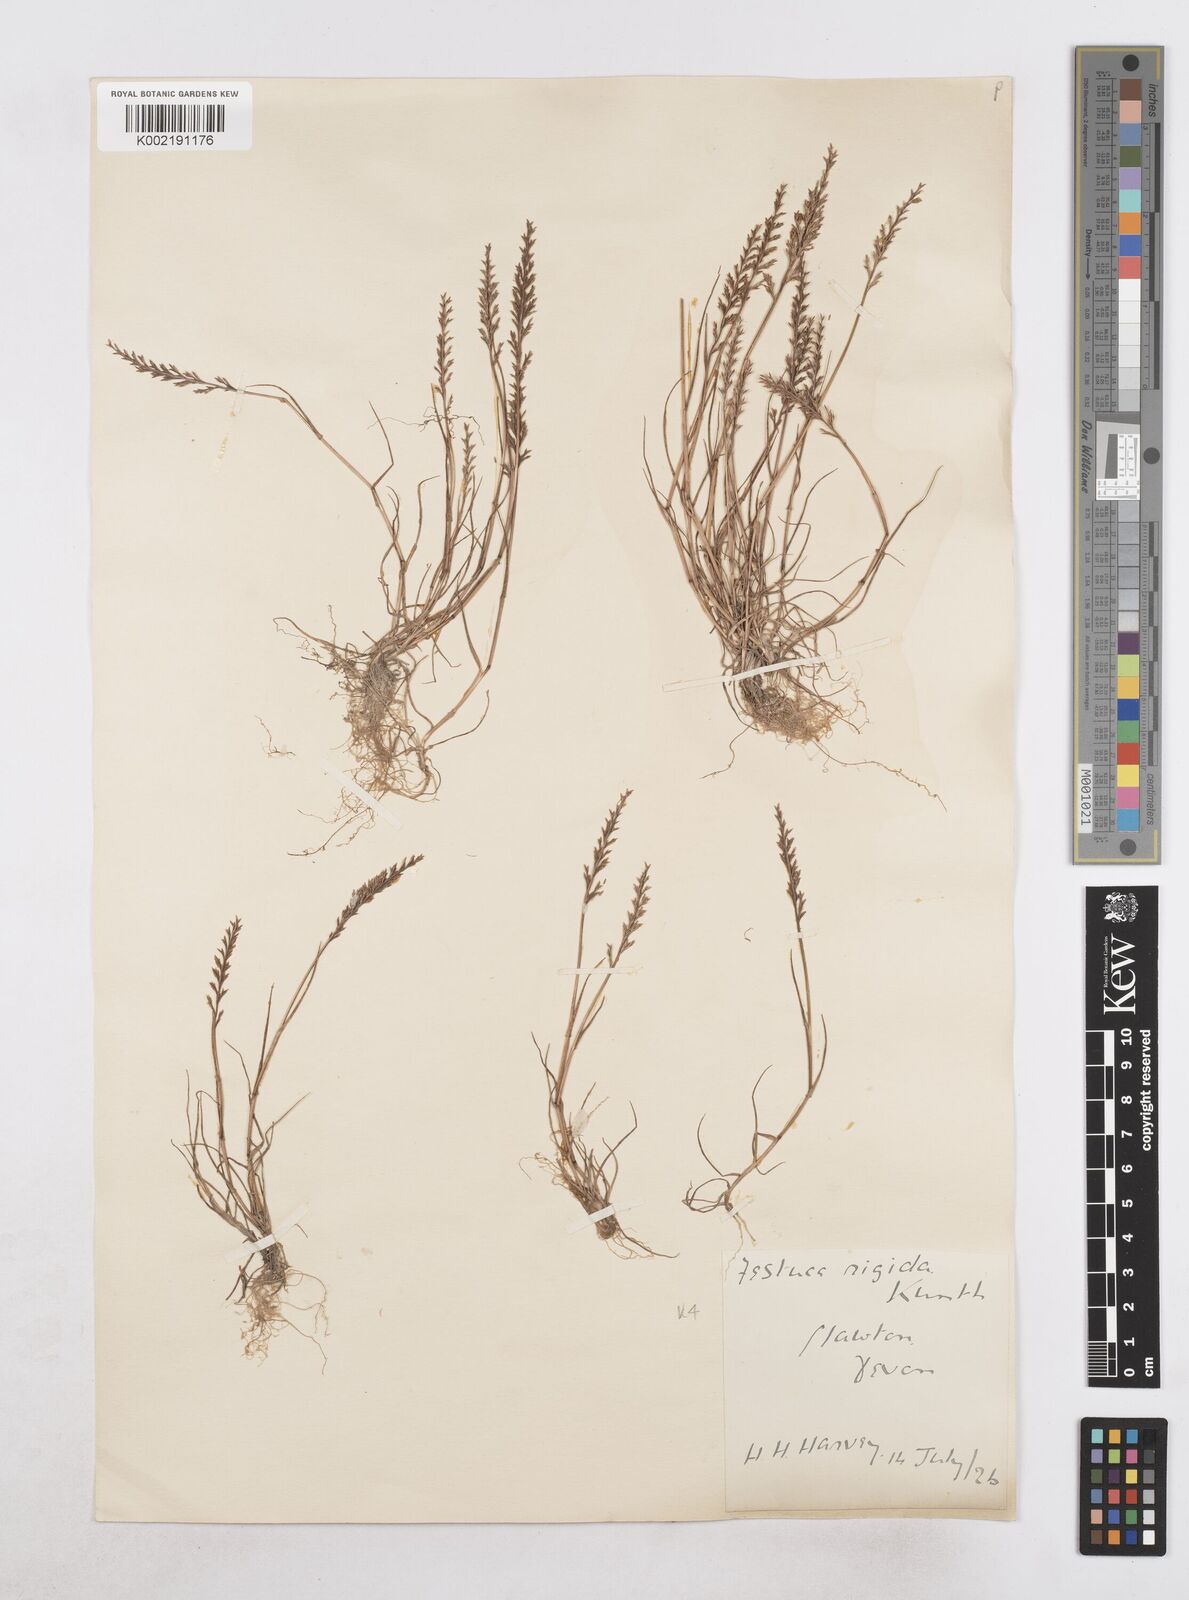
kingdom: Plantae
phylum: Tracheophyta
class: Liliopsida
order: Poales
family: Poaceae
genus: Catapodium
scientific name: Catapodium rigidum
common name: Fern-grass
